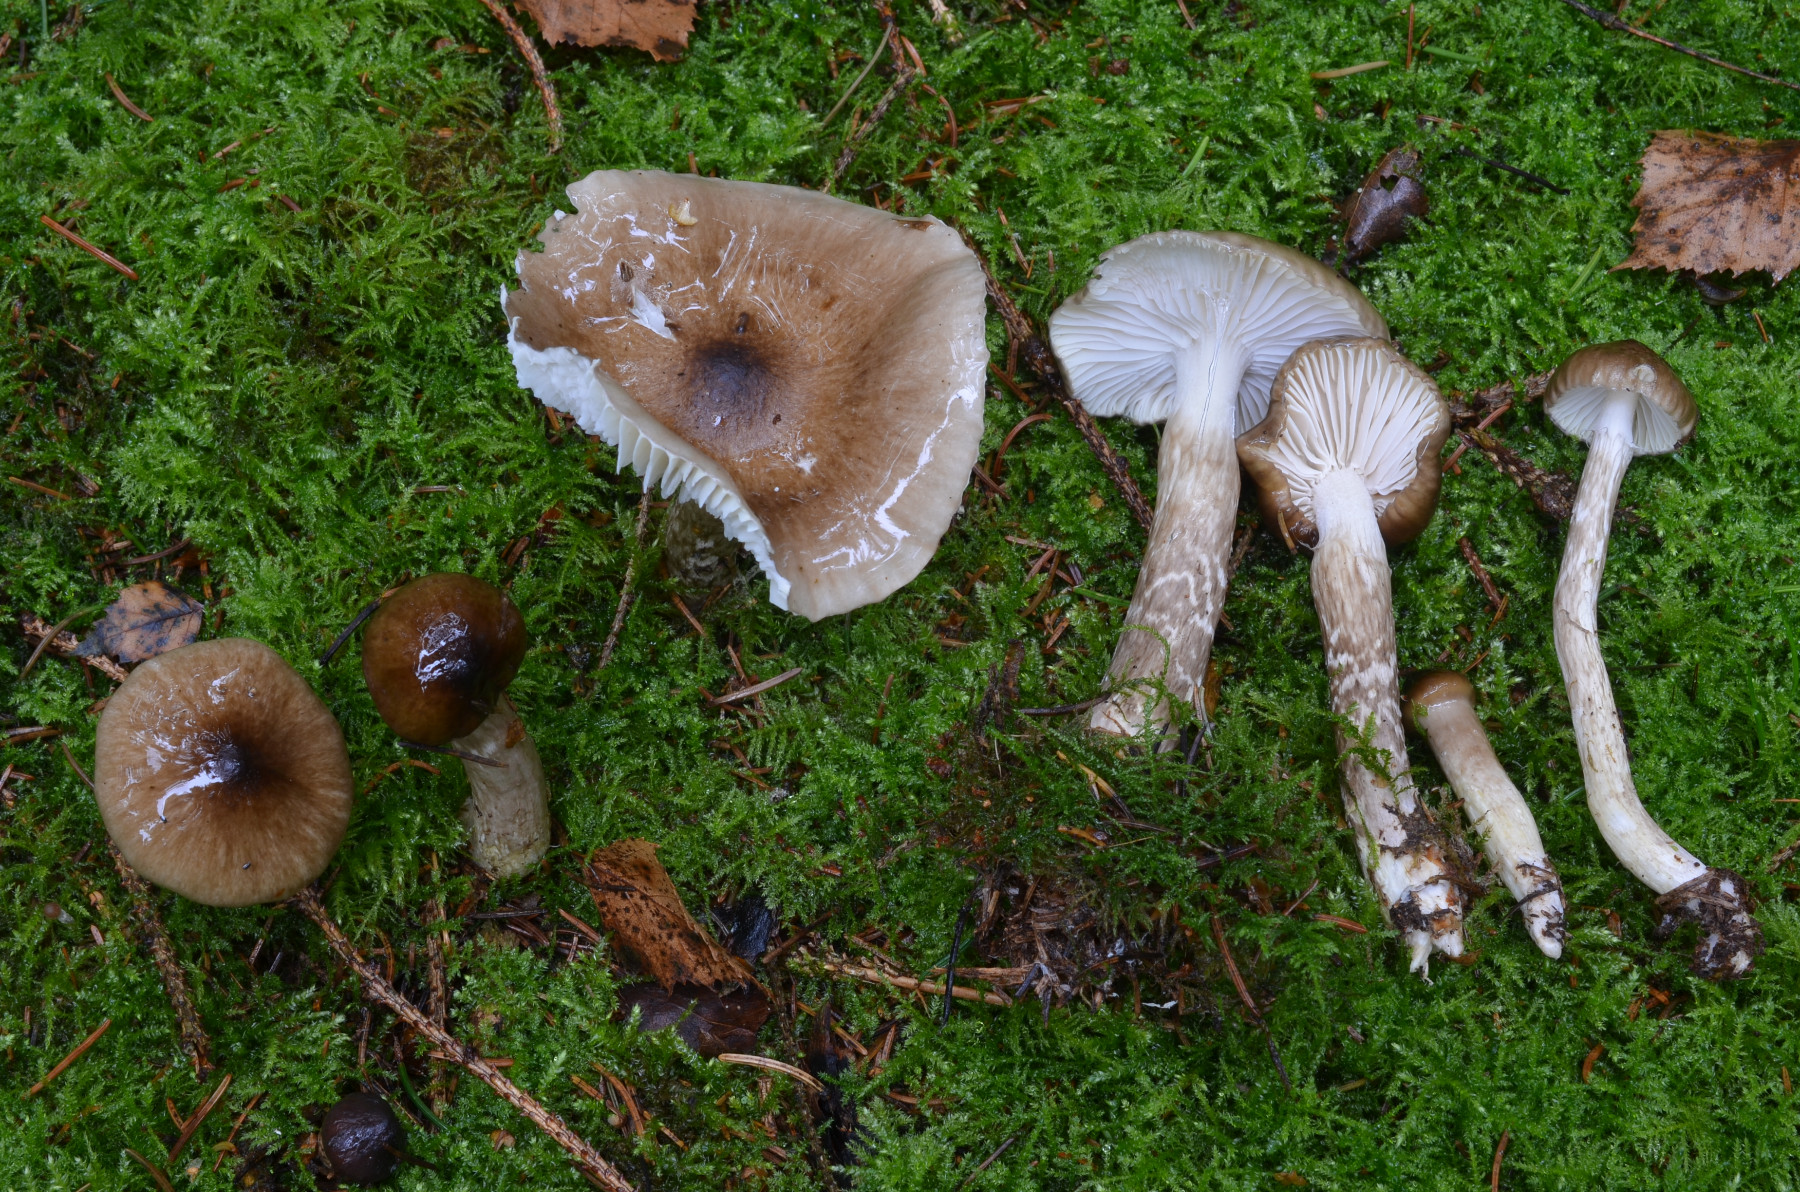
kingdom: Fungi
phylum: Basidiomycota
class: Agaricomycetes
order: Agaricales
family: Hygrophoraceae
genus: Hygrophorus
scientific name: Hygrophorus olivaceoalbus
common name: hvidbrun sneglehat
